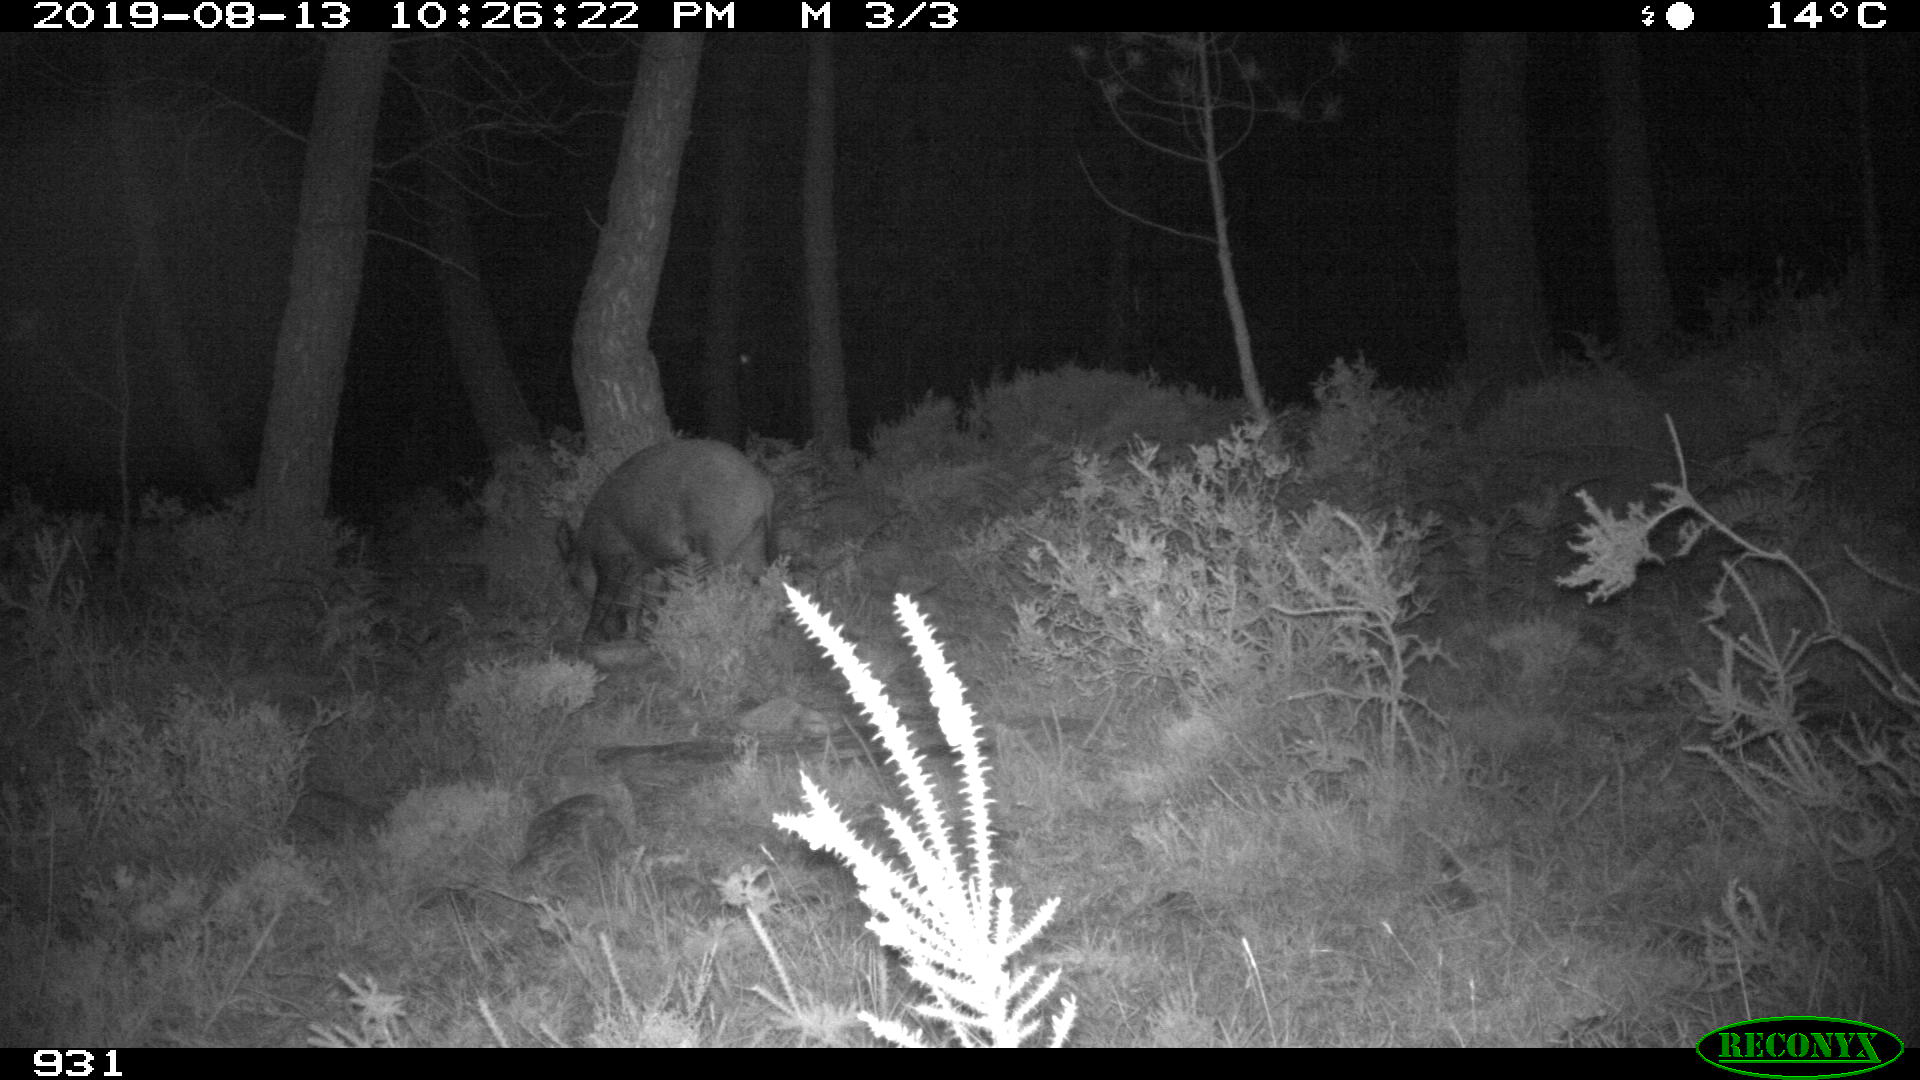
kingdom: Animalia
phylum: Chordata
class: Mammalia
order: Artiodactyla
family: Suidae
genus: Sus
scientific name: Sus scrofa
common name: Wild boar
